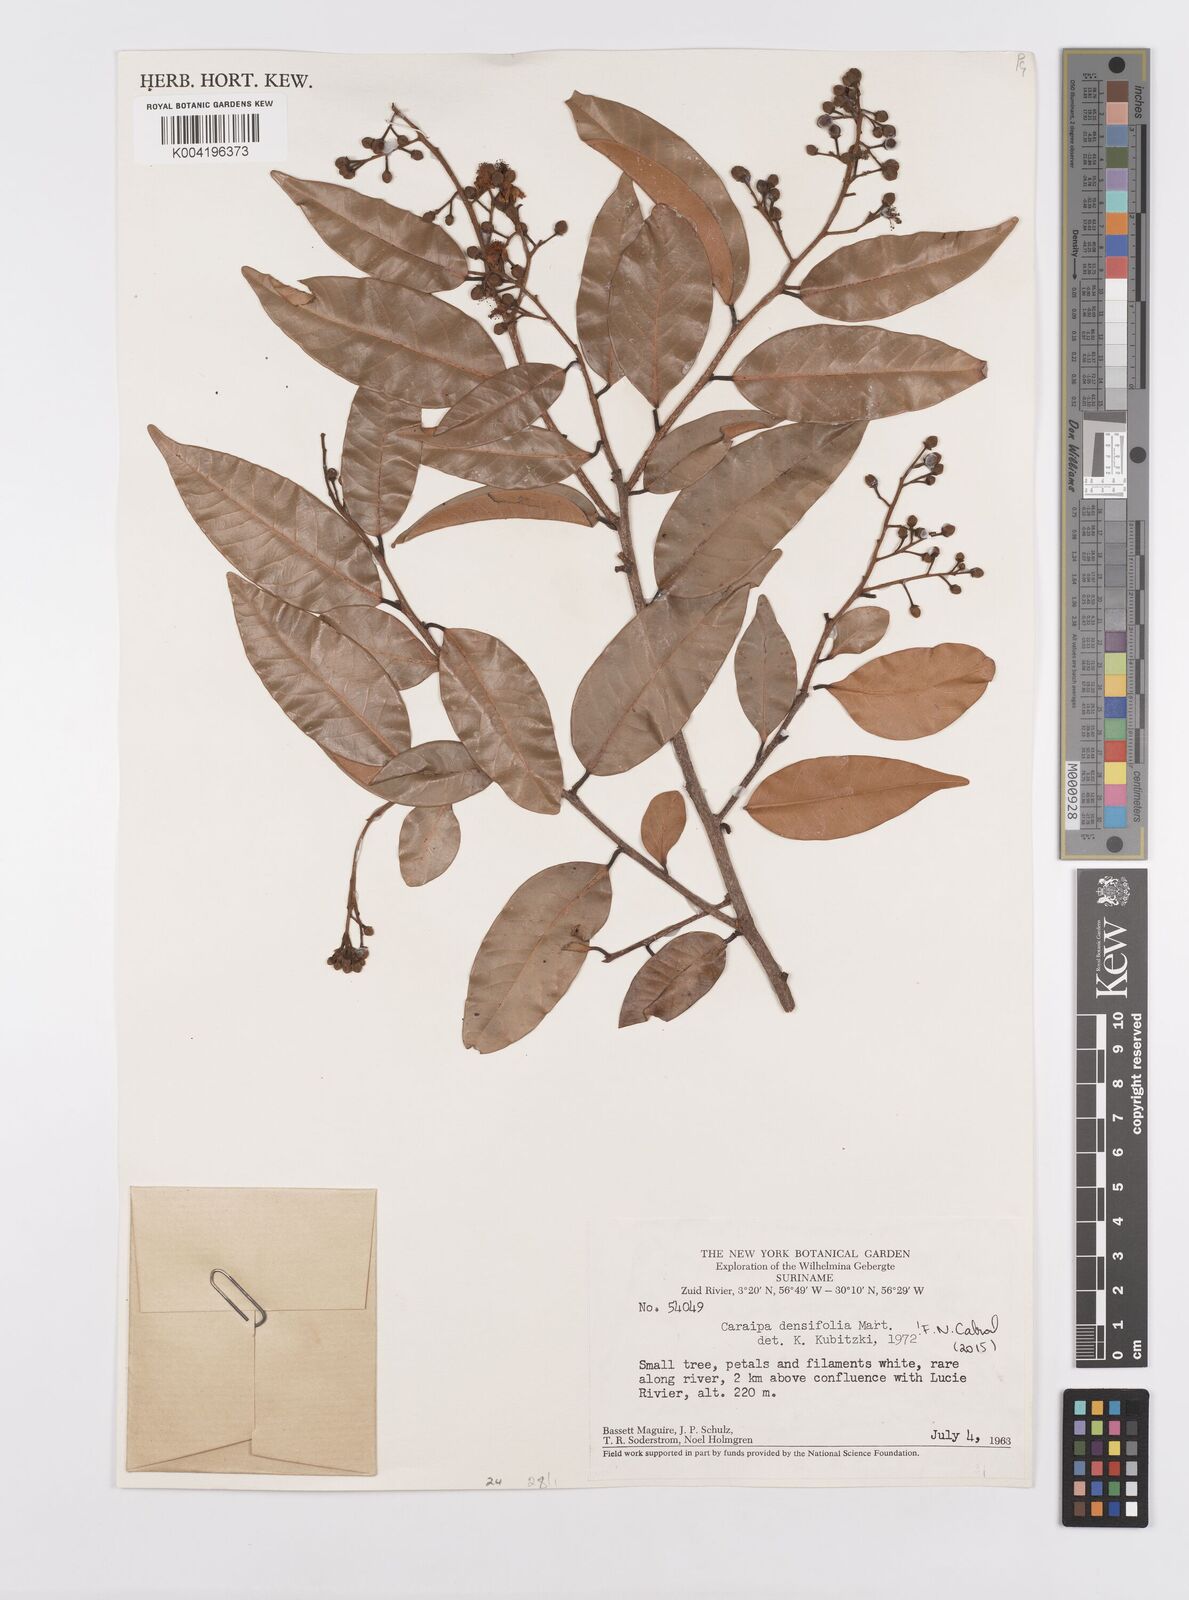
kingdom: Plantae
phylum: Tracheophyta
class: Magnoliopsida
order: Malpighiales
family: Calophyllaceae
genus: Caraipa
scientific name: Caraipa densifolia
